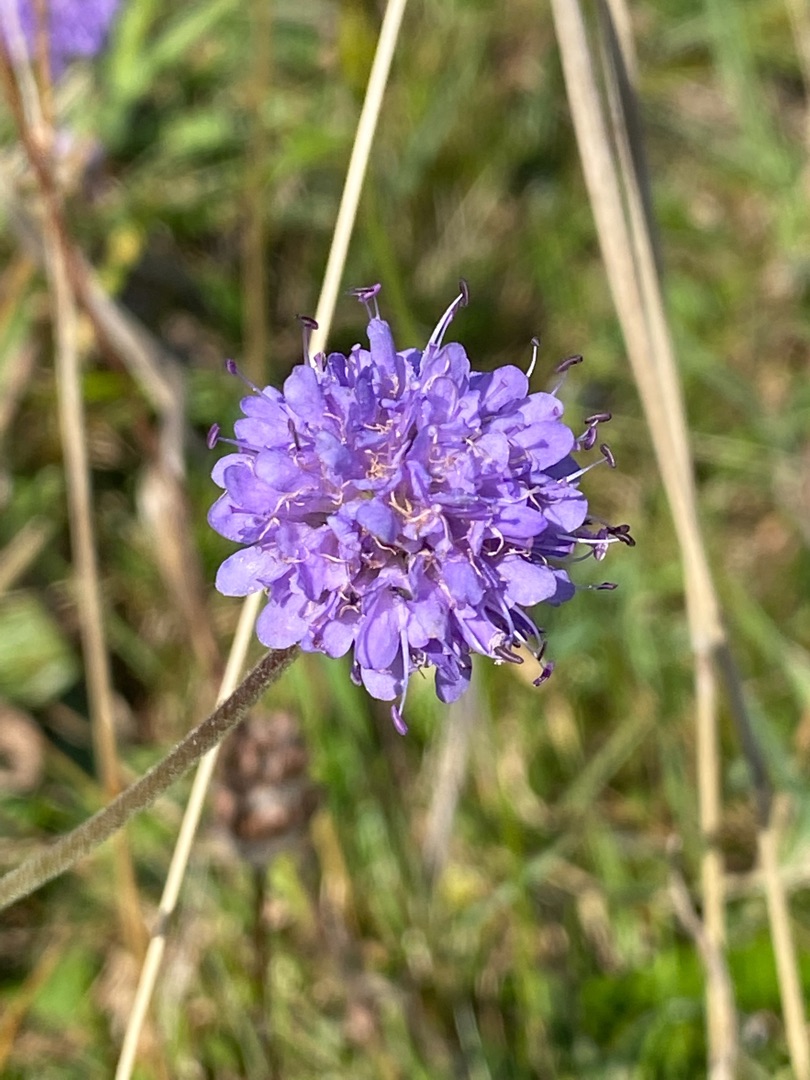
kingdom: Plantae
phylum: Tracheophyta
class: Magnoliopsida
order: Dipsacales
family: Caprifoliaceae
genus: Succisa
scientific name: Succisa pratensis
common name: Djævelsbid
